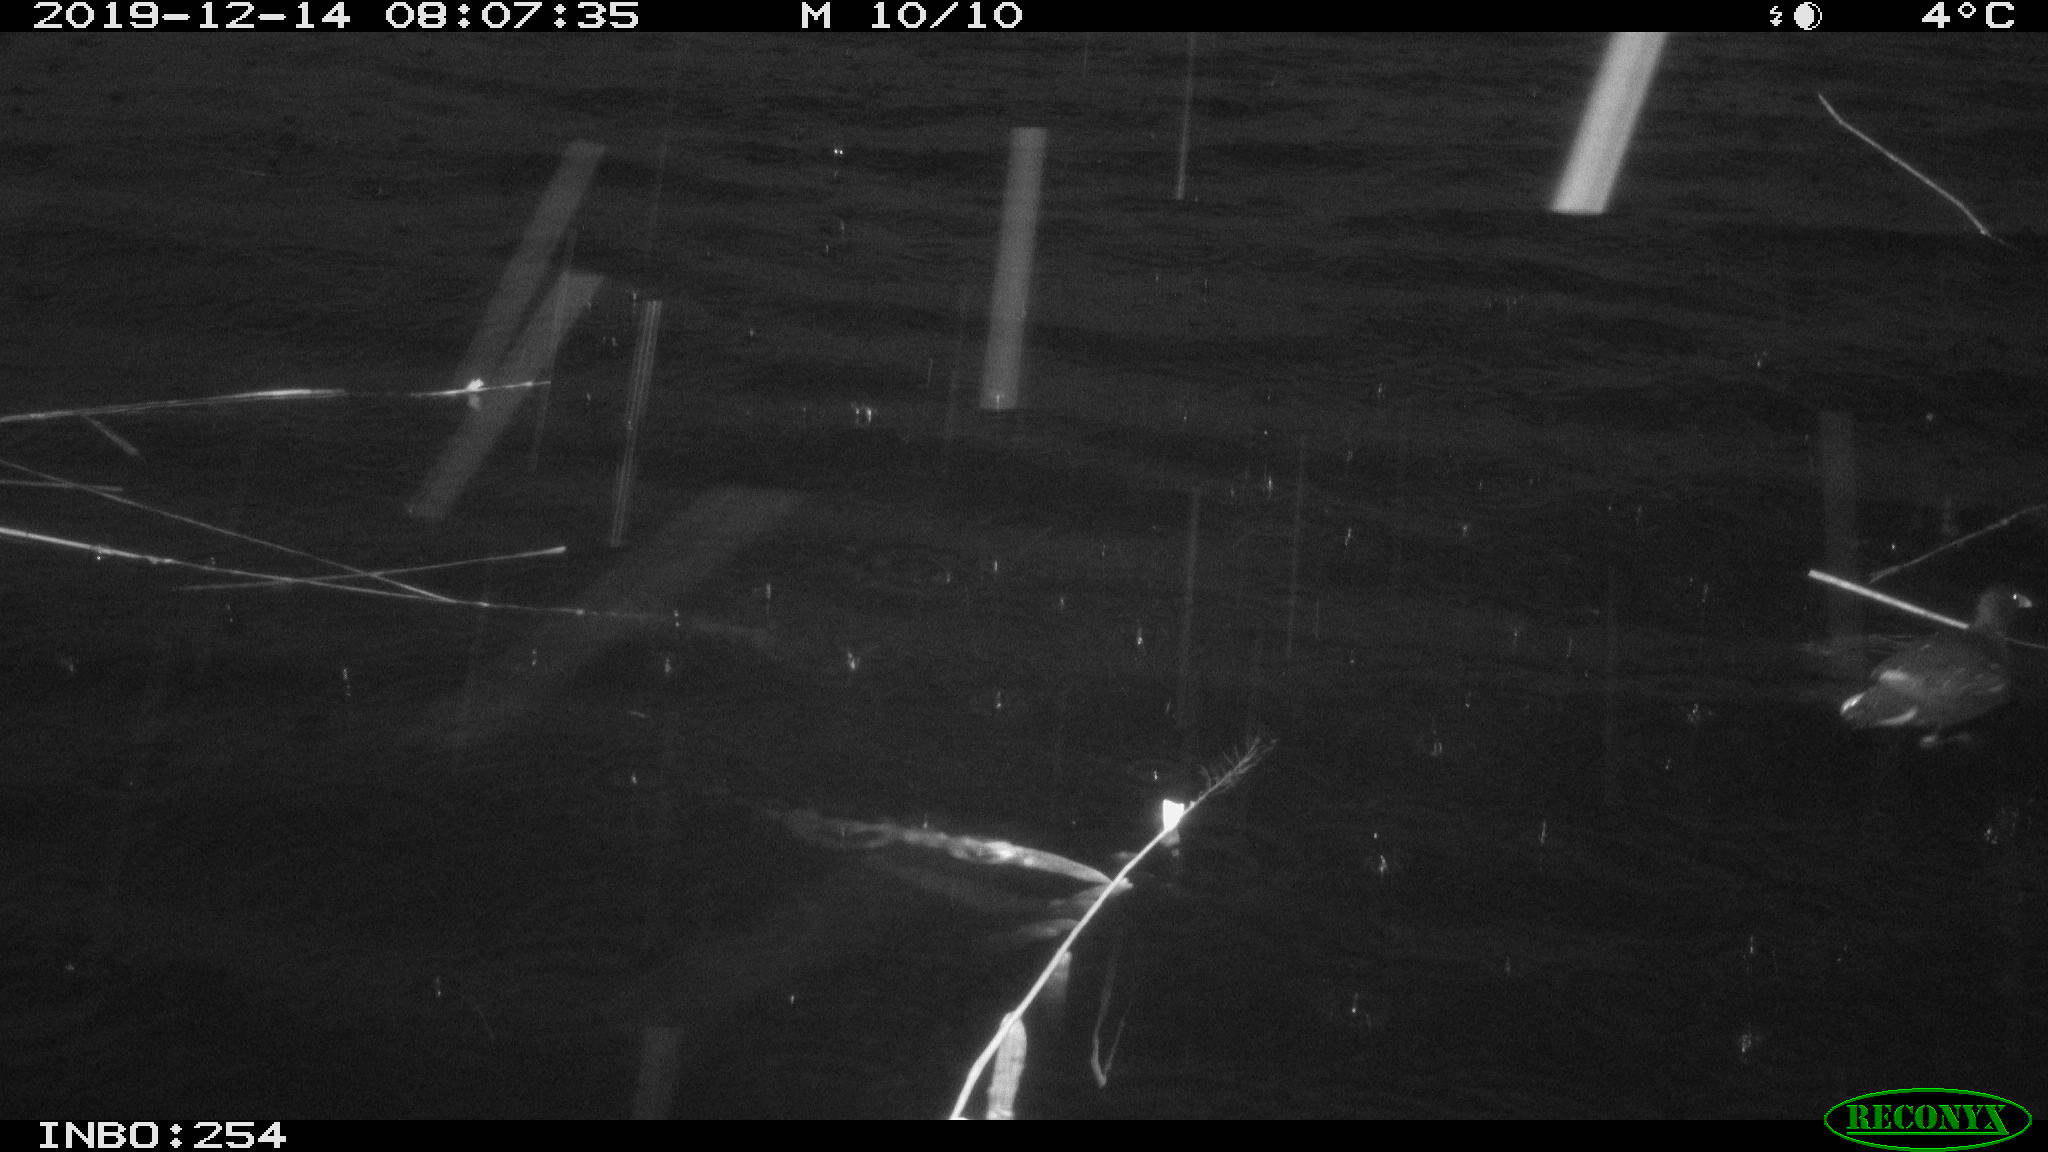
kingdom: Animalia
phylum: Chordata
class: Aves
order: Gruiformes
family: Rallidae
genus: Gallinula
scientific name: Gallinula chloropus
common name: Common moorhen
